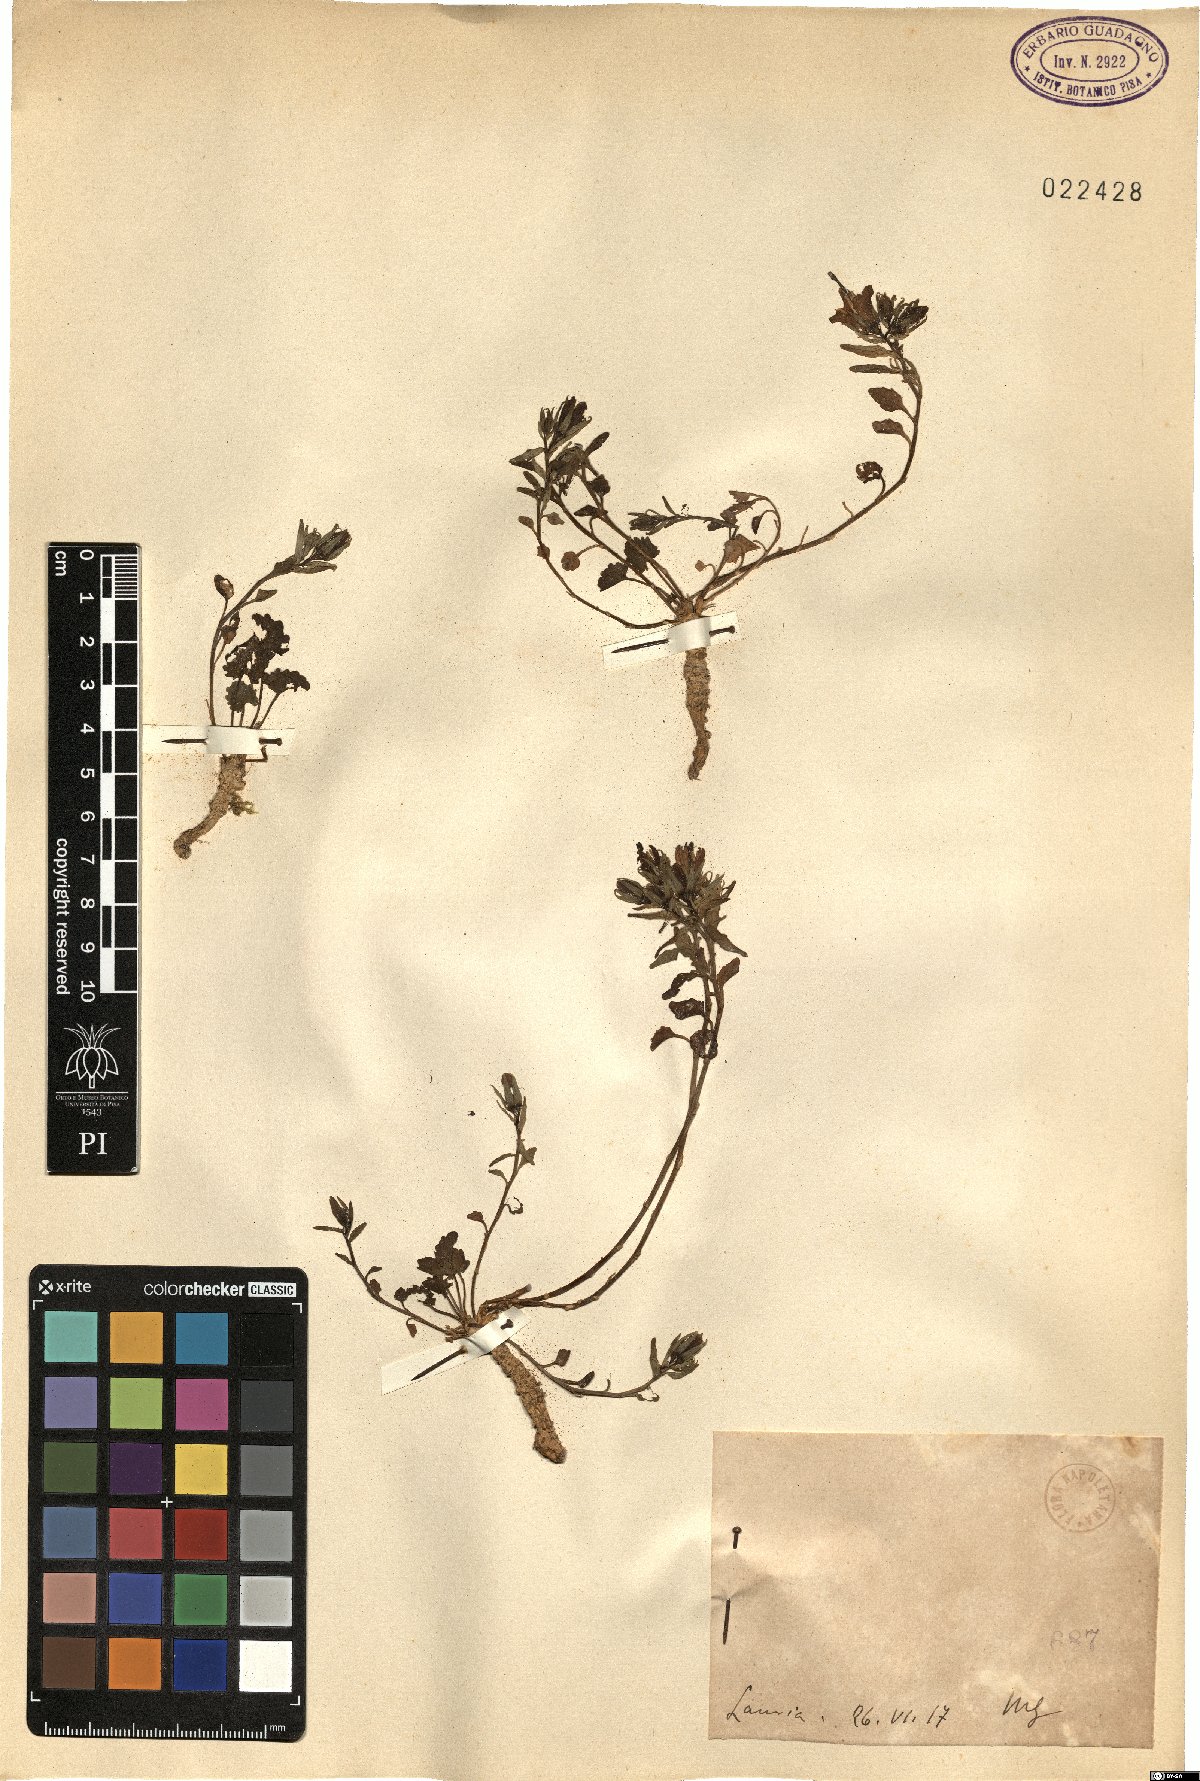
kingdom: Plantae
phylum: Tracheophyta
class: Magnoliopsida
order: Asterales
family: Campanulaceae
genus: Campanula
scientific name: Campanula
